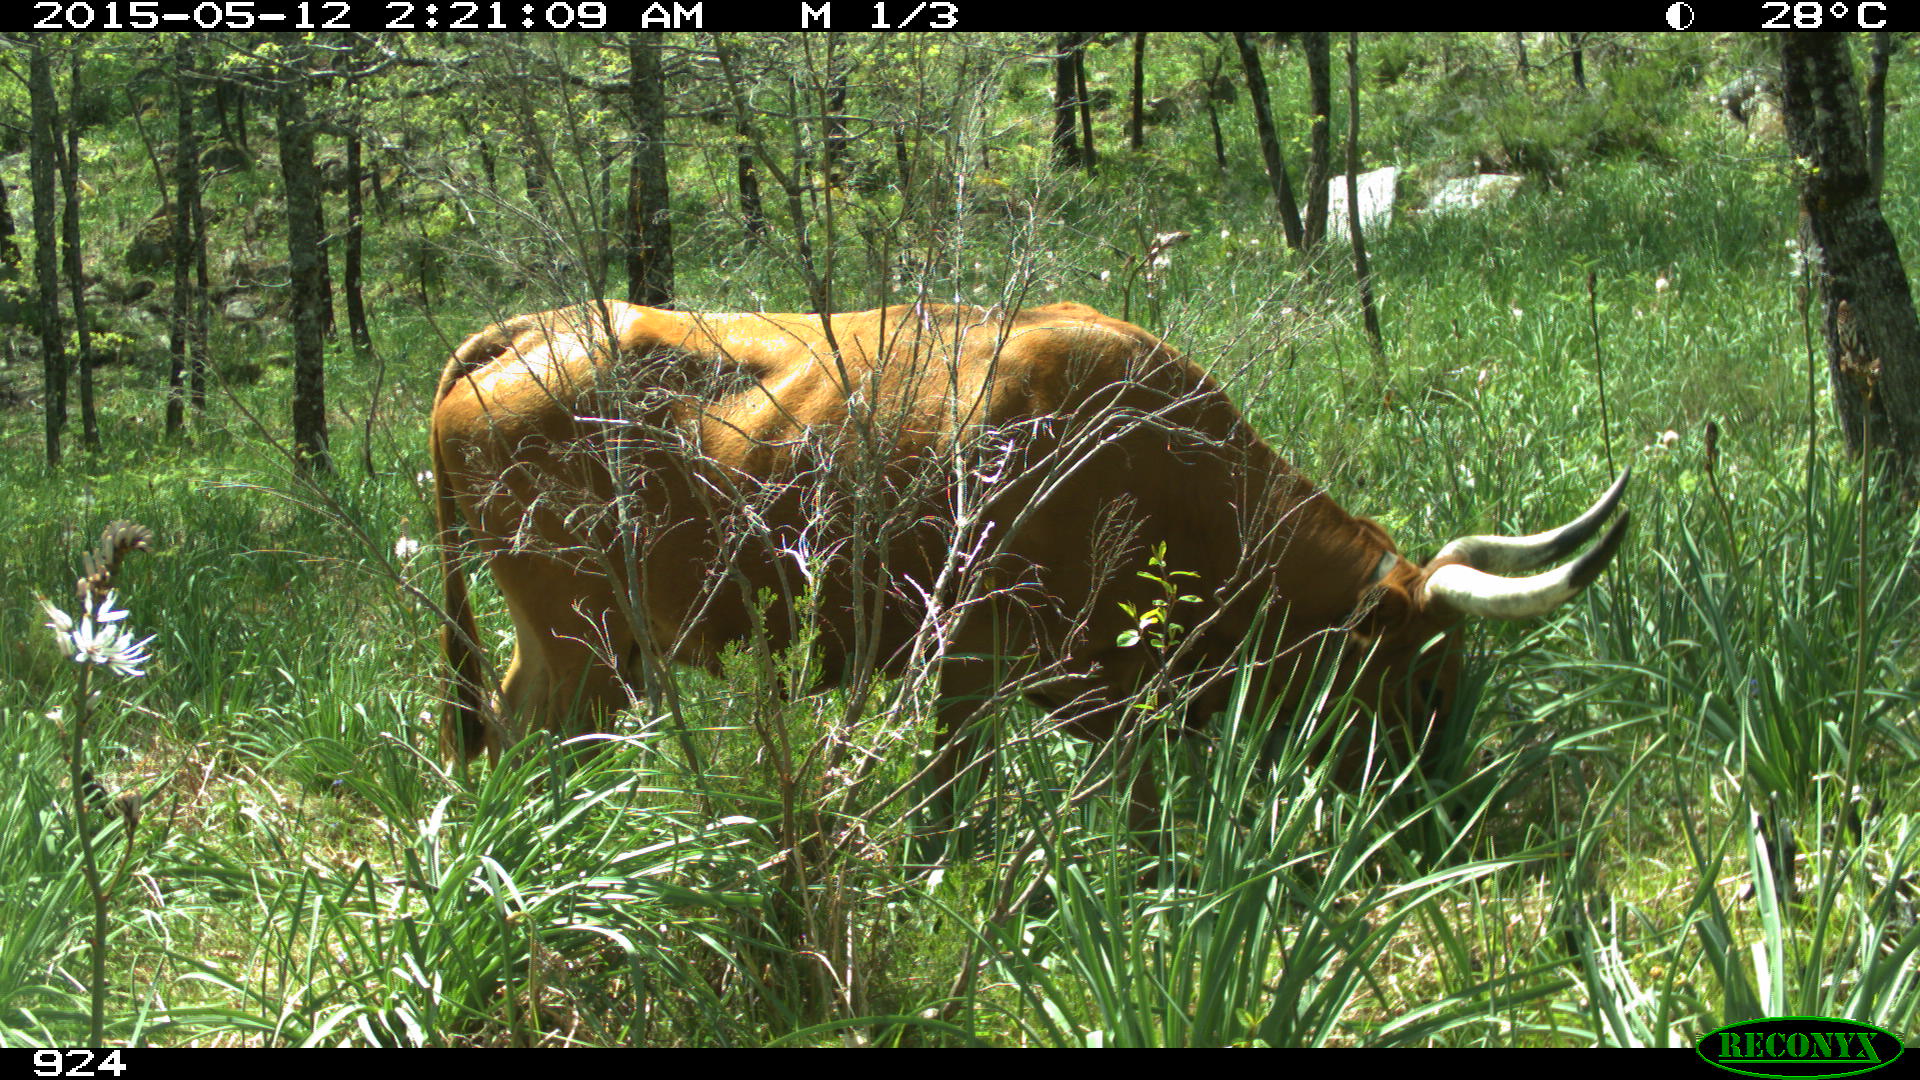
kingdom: Animalia
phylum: Chordata
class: Mammalia
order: Artiodactyla
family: Bovidae
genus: Bos
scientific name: Bos taurus
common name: Domesticated cattle
